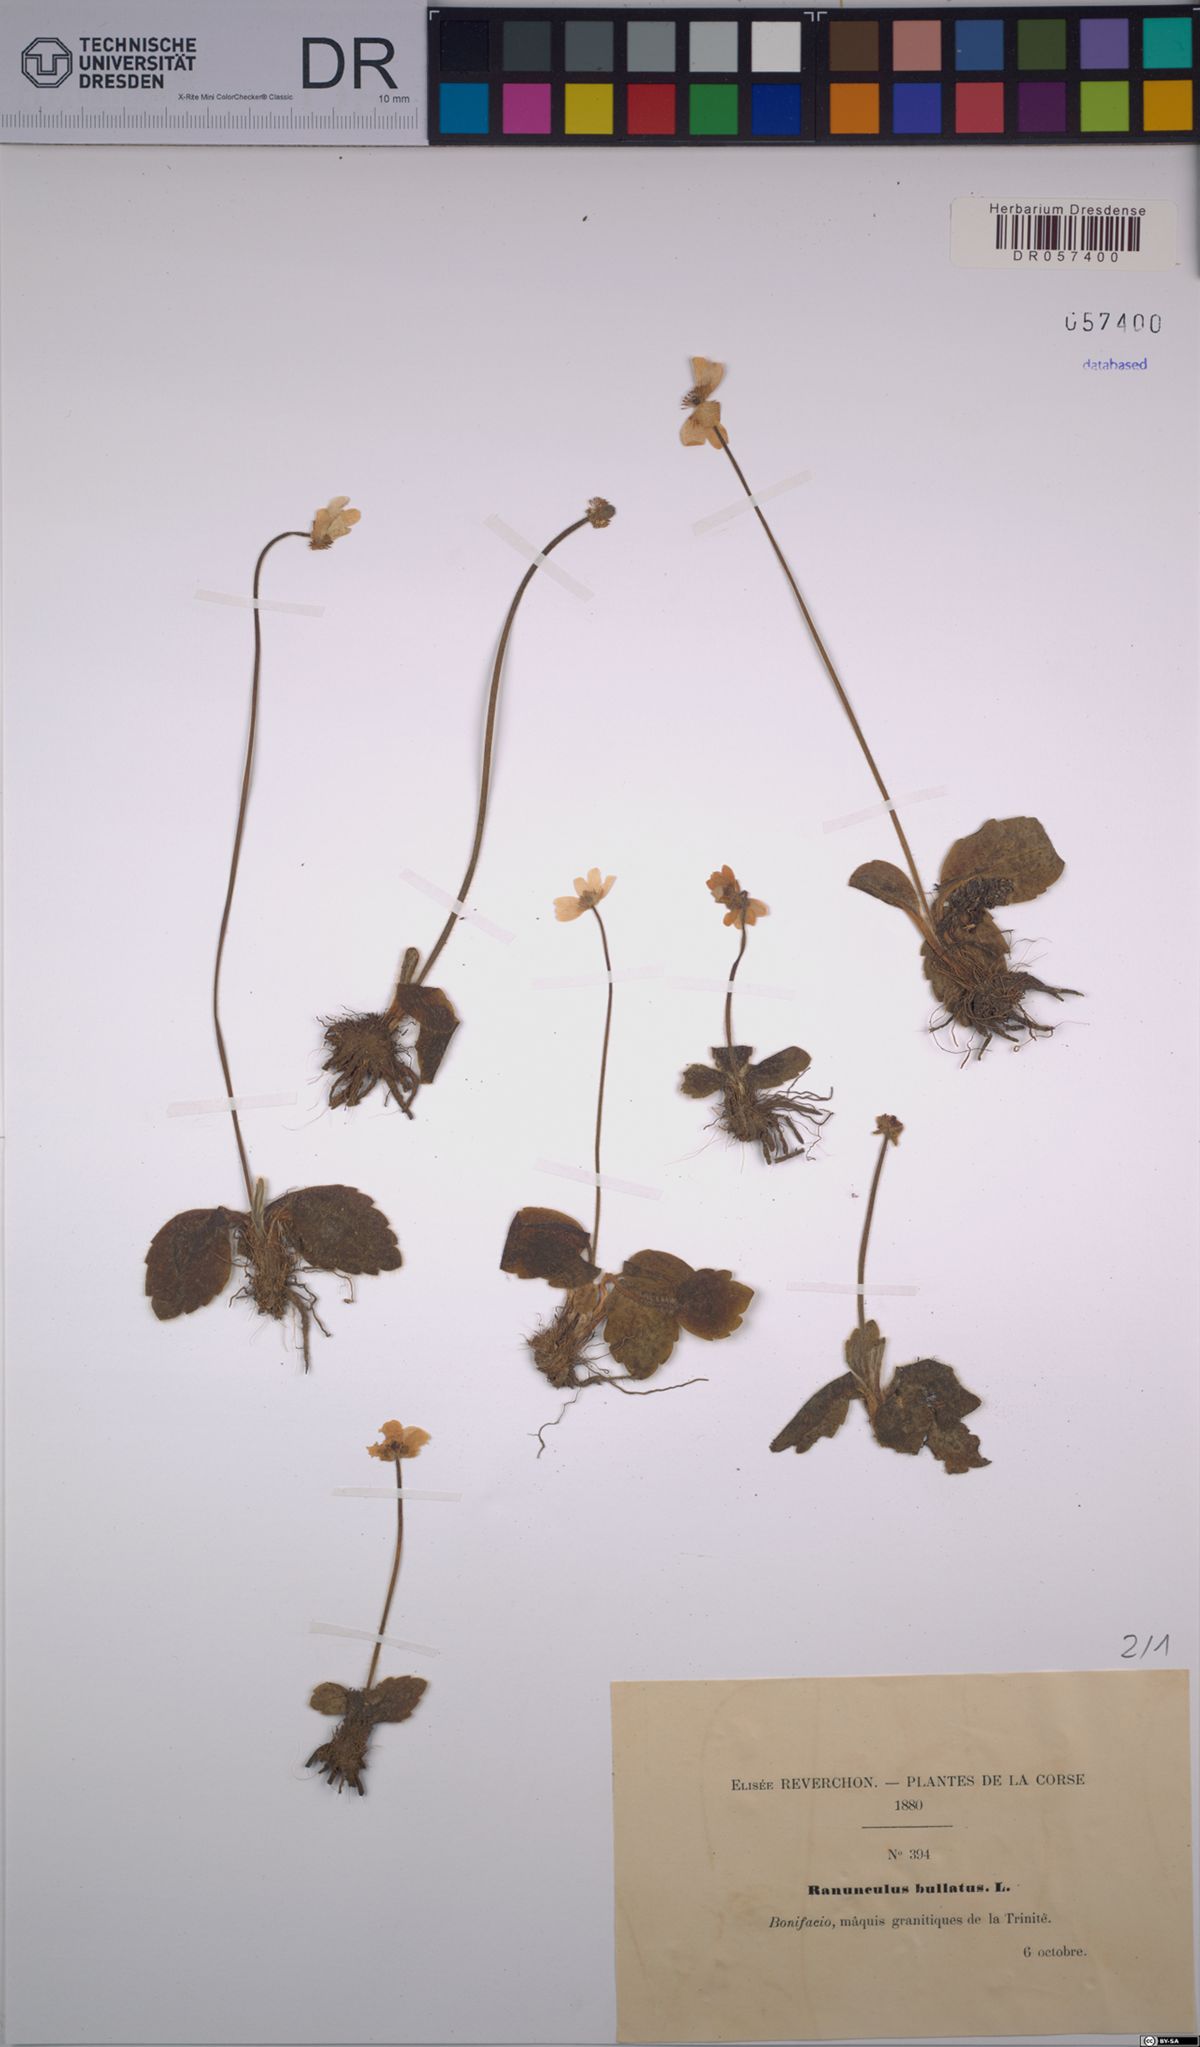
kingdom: Plantae
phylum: Tracheophyta
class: Magnoliopsida
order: Ranunculales
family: Ranunculaceae
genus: Ranunculus
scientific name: Ranunculus bullatus
